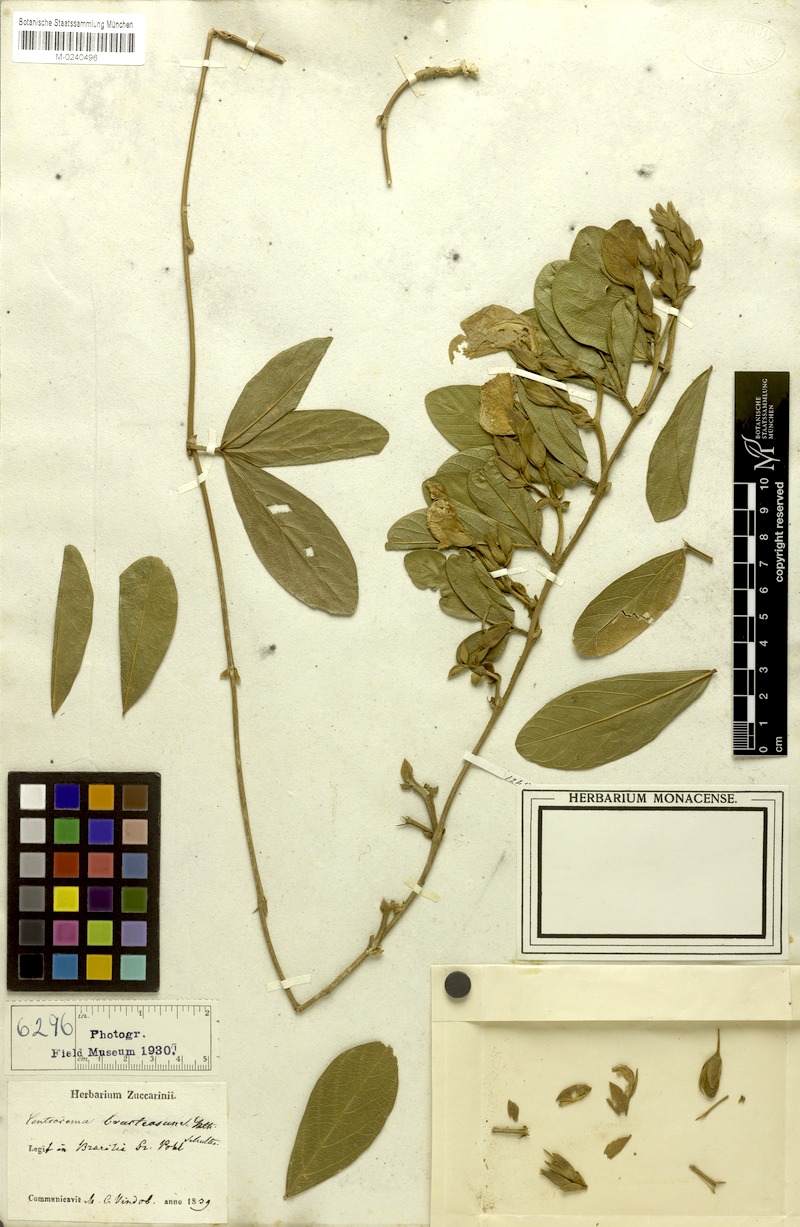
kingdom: Plantae
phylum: Tracheophyta
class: Magnoliopsida
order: Fabales
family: Fabaceae
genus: Centrosema
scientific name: Centrosema bracteosum
